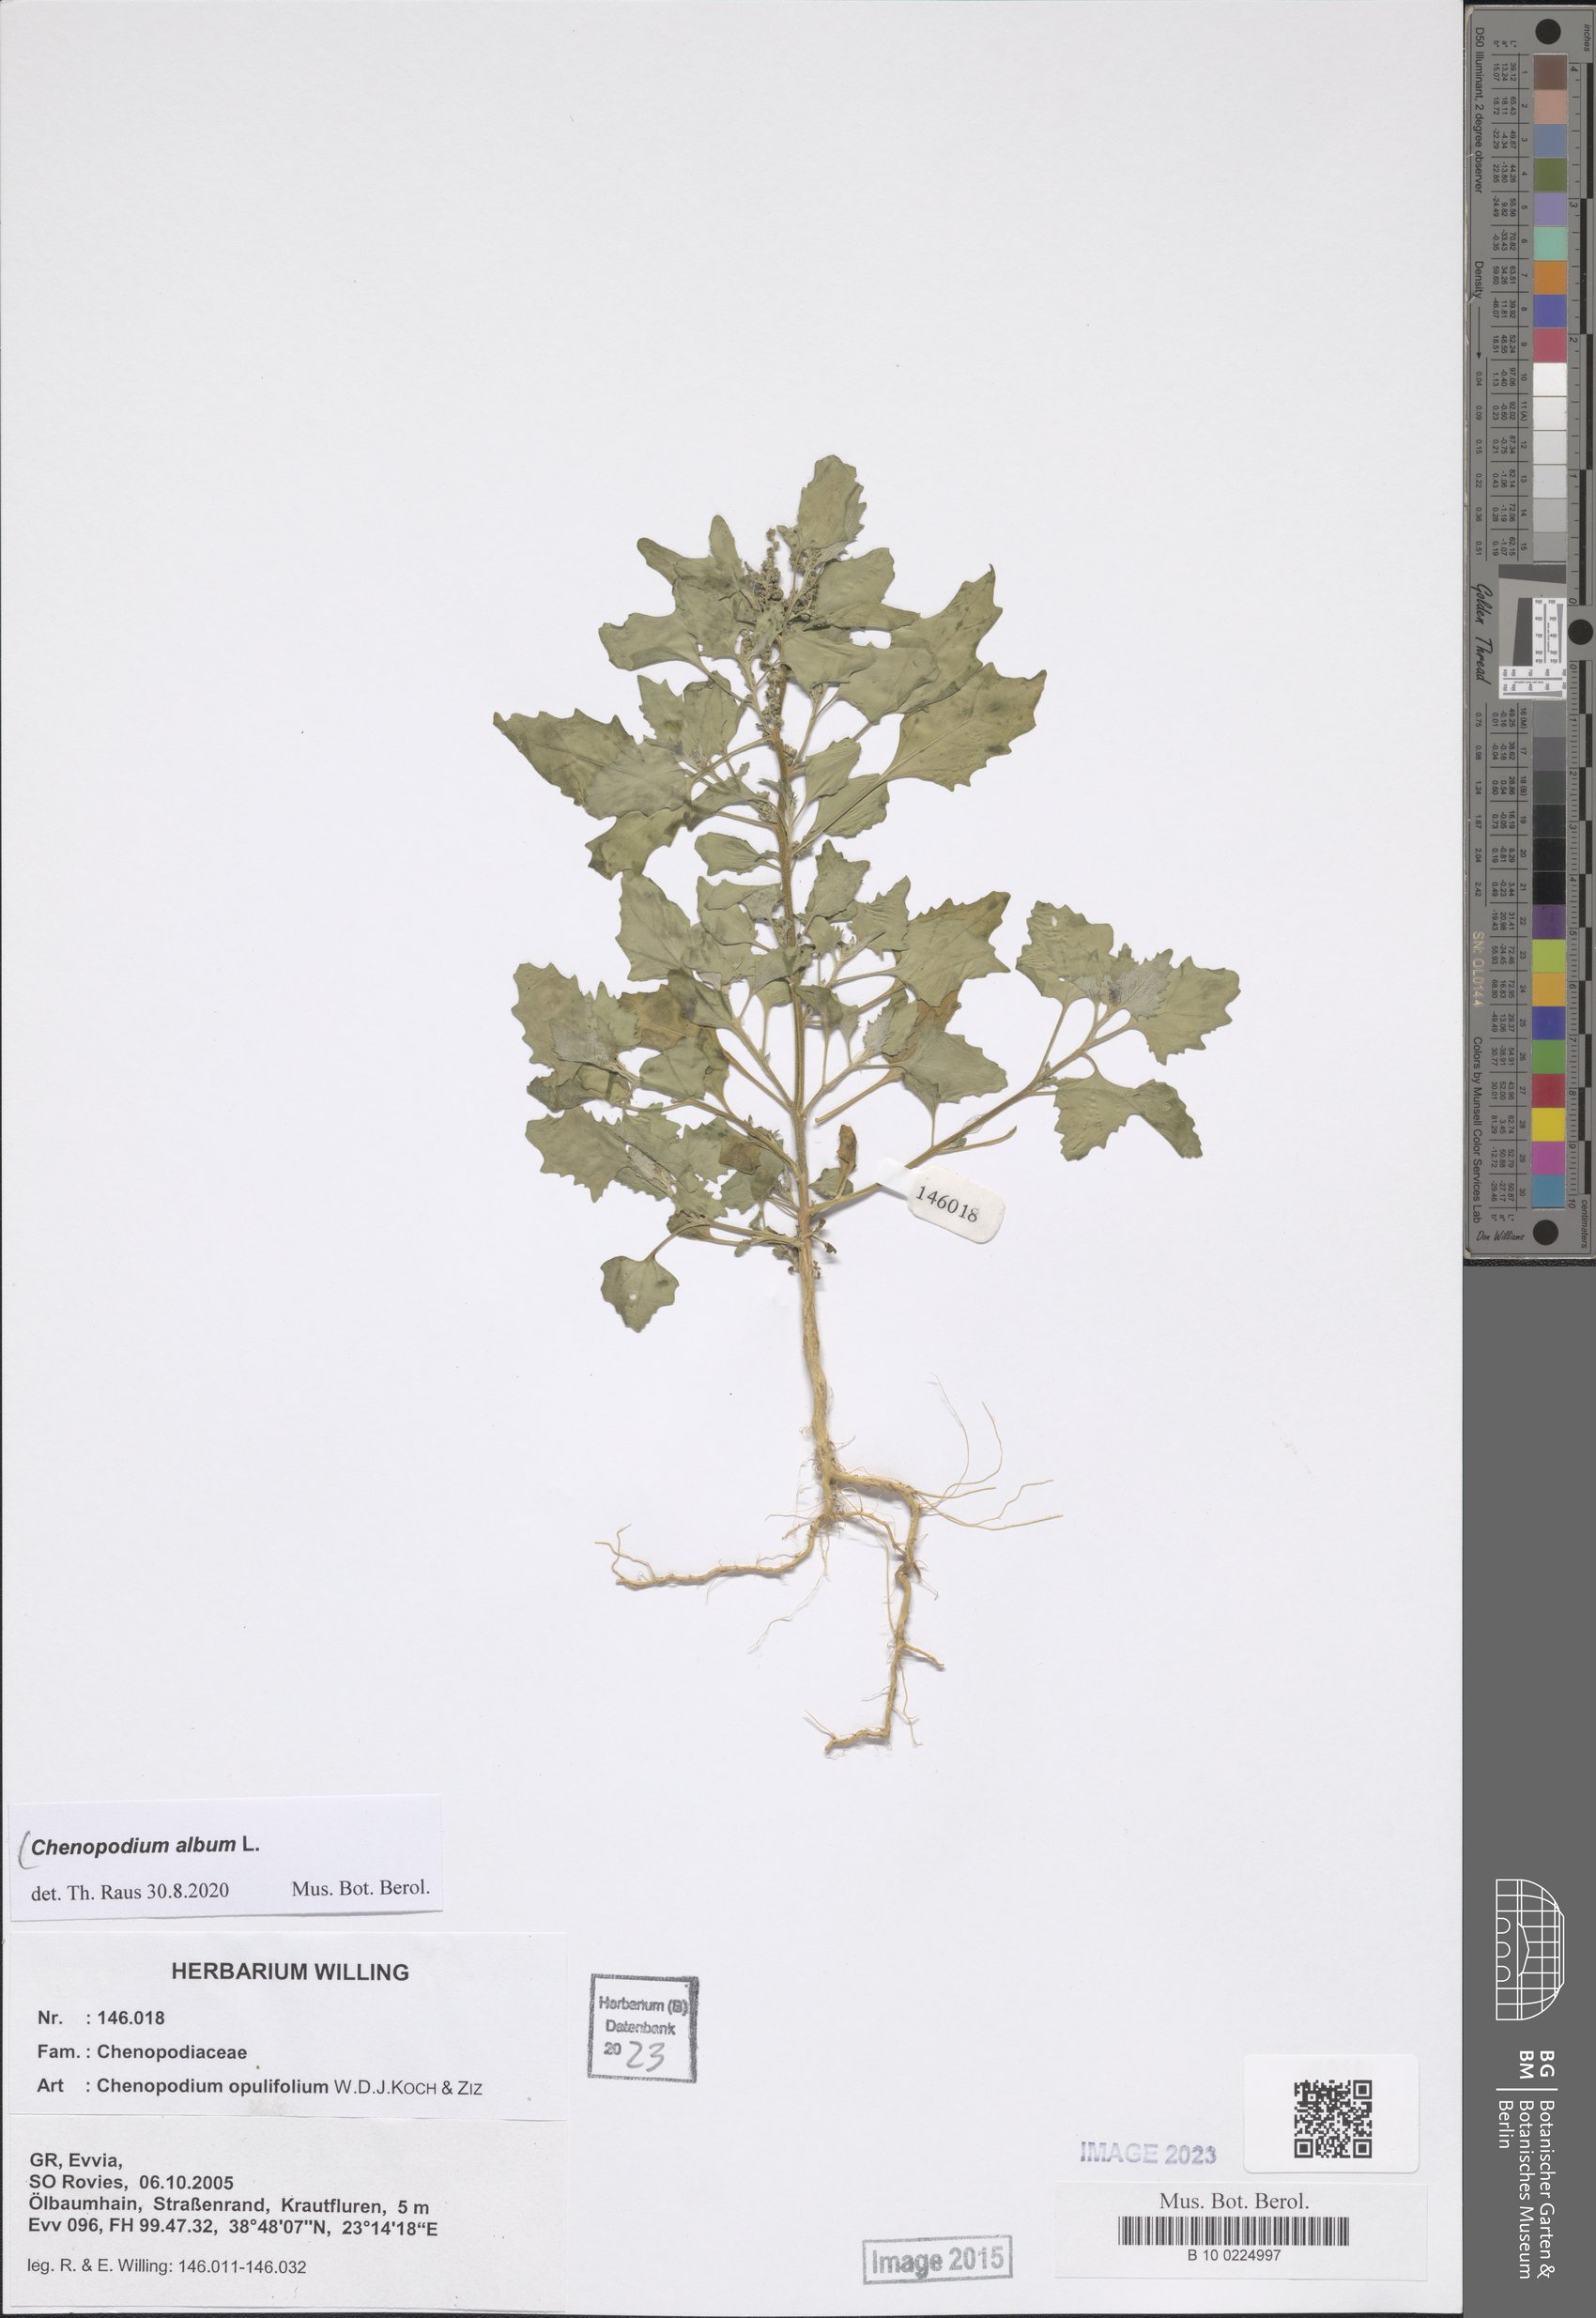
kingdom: Plantae
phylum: Tracheophyta
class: Magnoliopsida
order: Caryophyllales
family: Amaranthaceae
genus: Chenopodium
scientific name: Chenopodium album
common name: Fat-hen
